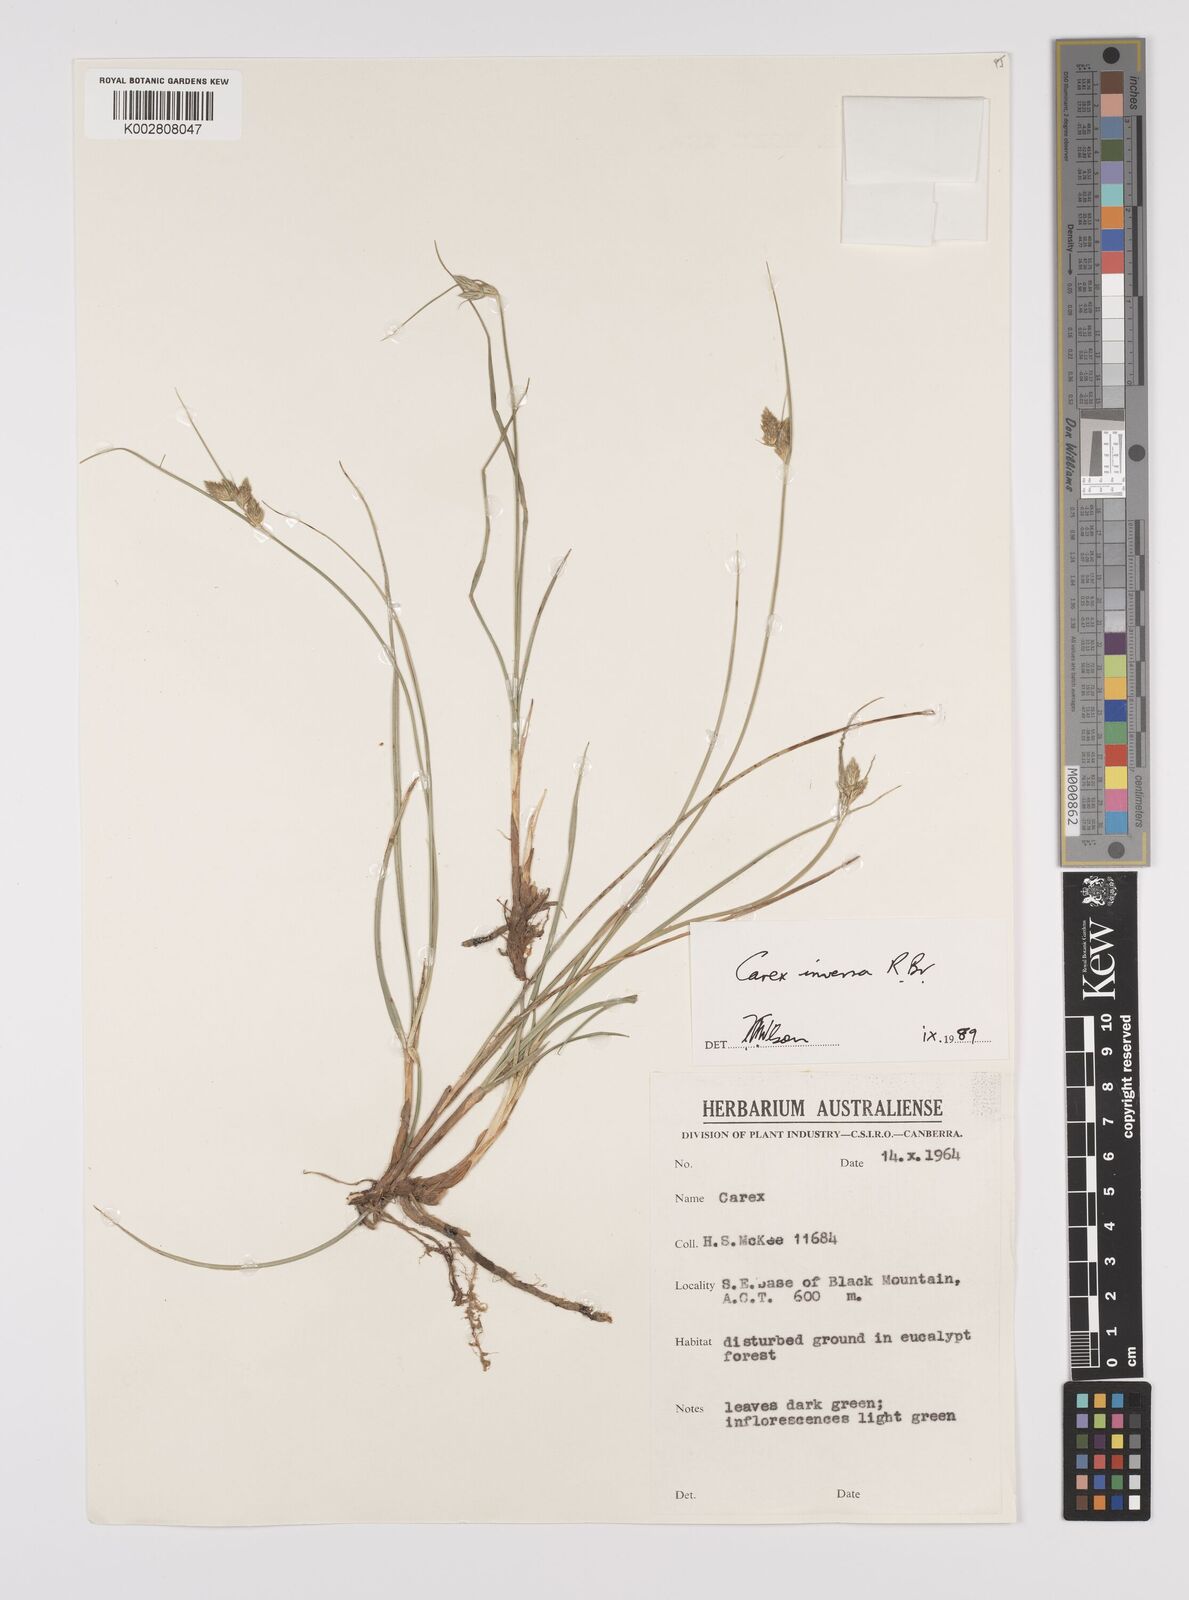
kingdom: Plantae
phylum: Tracheophyta
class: Liliopsida
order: Poales
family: Cyperaceae
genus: Carex
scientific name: Carex inversa
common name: Knob sedge
